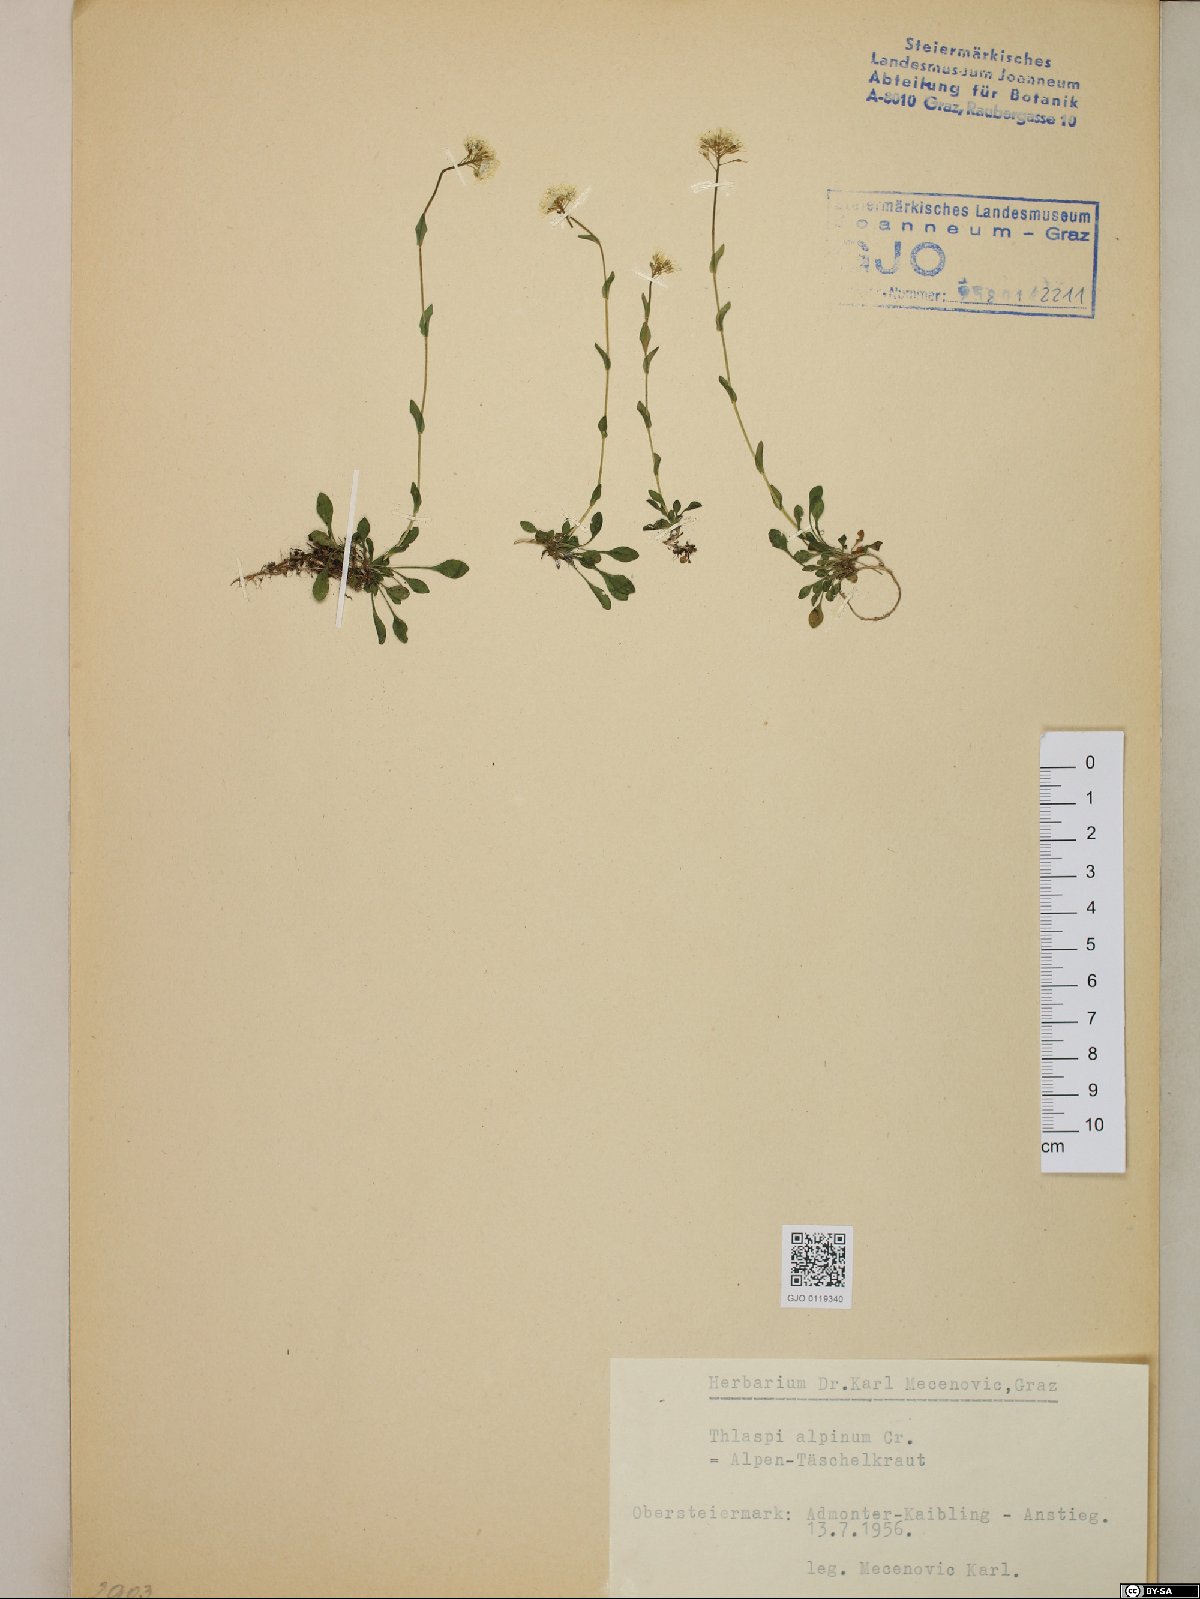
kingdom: Plantae
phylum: Tracheophyta
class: Magnoliopsida
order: Brassicales
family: Brassicaceae
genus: Noccaea
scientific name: Noccaea alpestris
